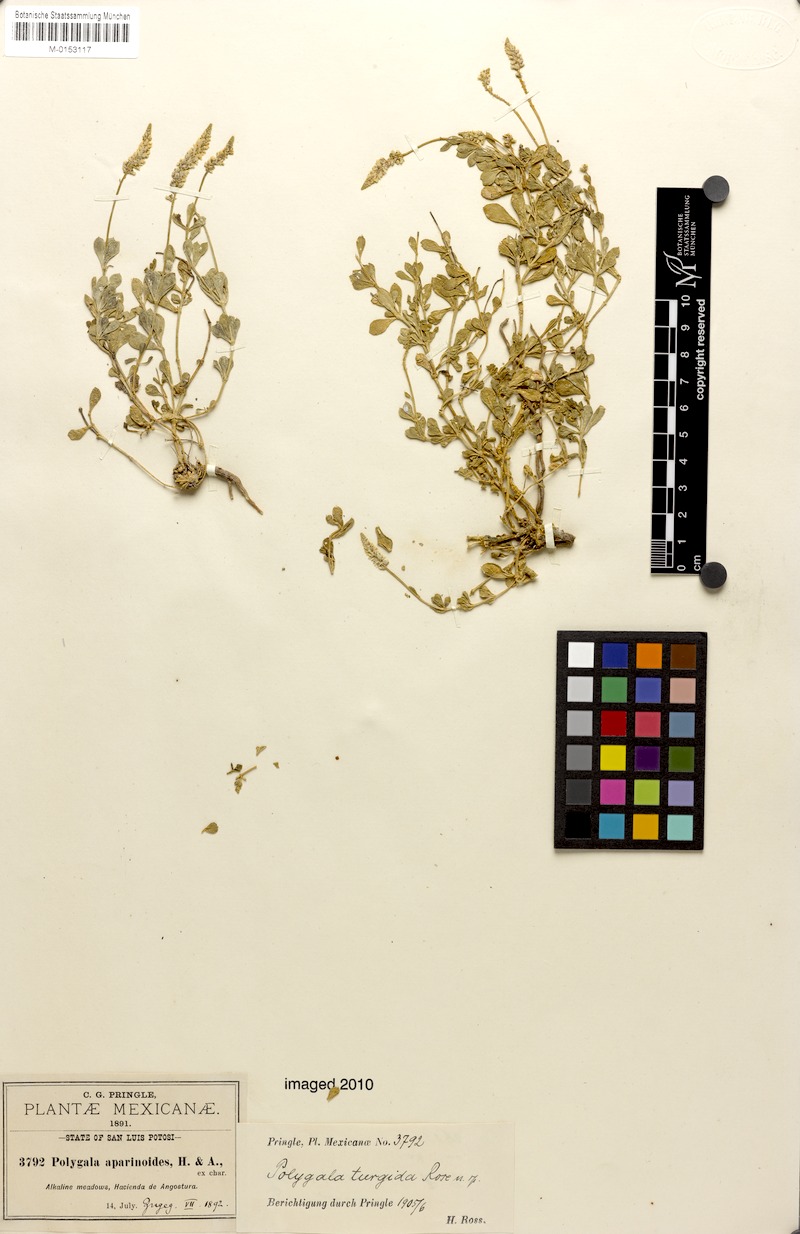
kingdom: Plantae
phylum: Tracheophyta
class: Magnoliopsida
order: Fabales
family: Polygalaceae
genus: Polygala
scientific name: Polygala turgida
